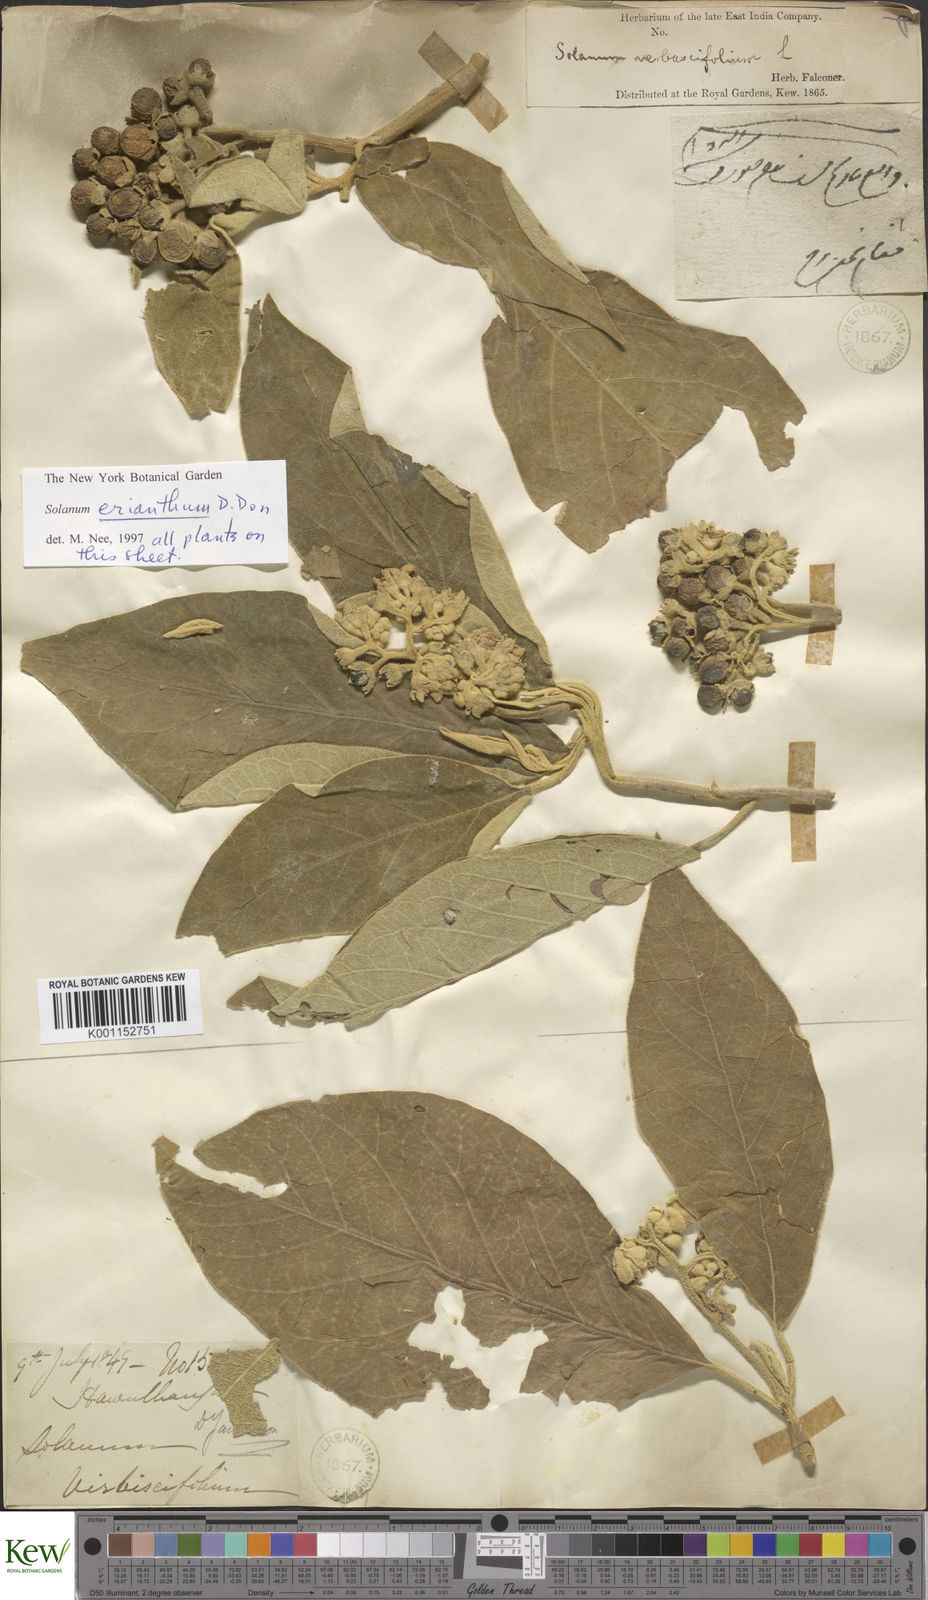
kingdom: Plantae
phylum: Tracheophyta
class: Magnoliopsida
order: Solanales
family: Solanaceae
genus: Solanum
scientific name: Solanum erianthum
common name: Tobacco-tree
